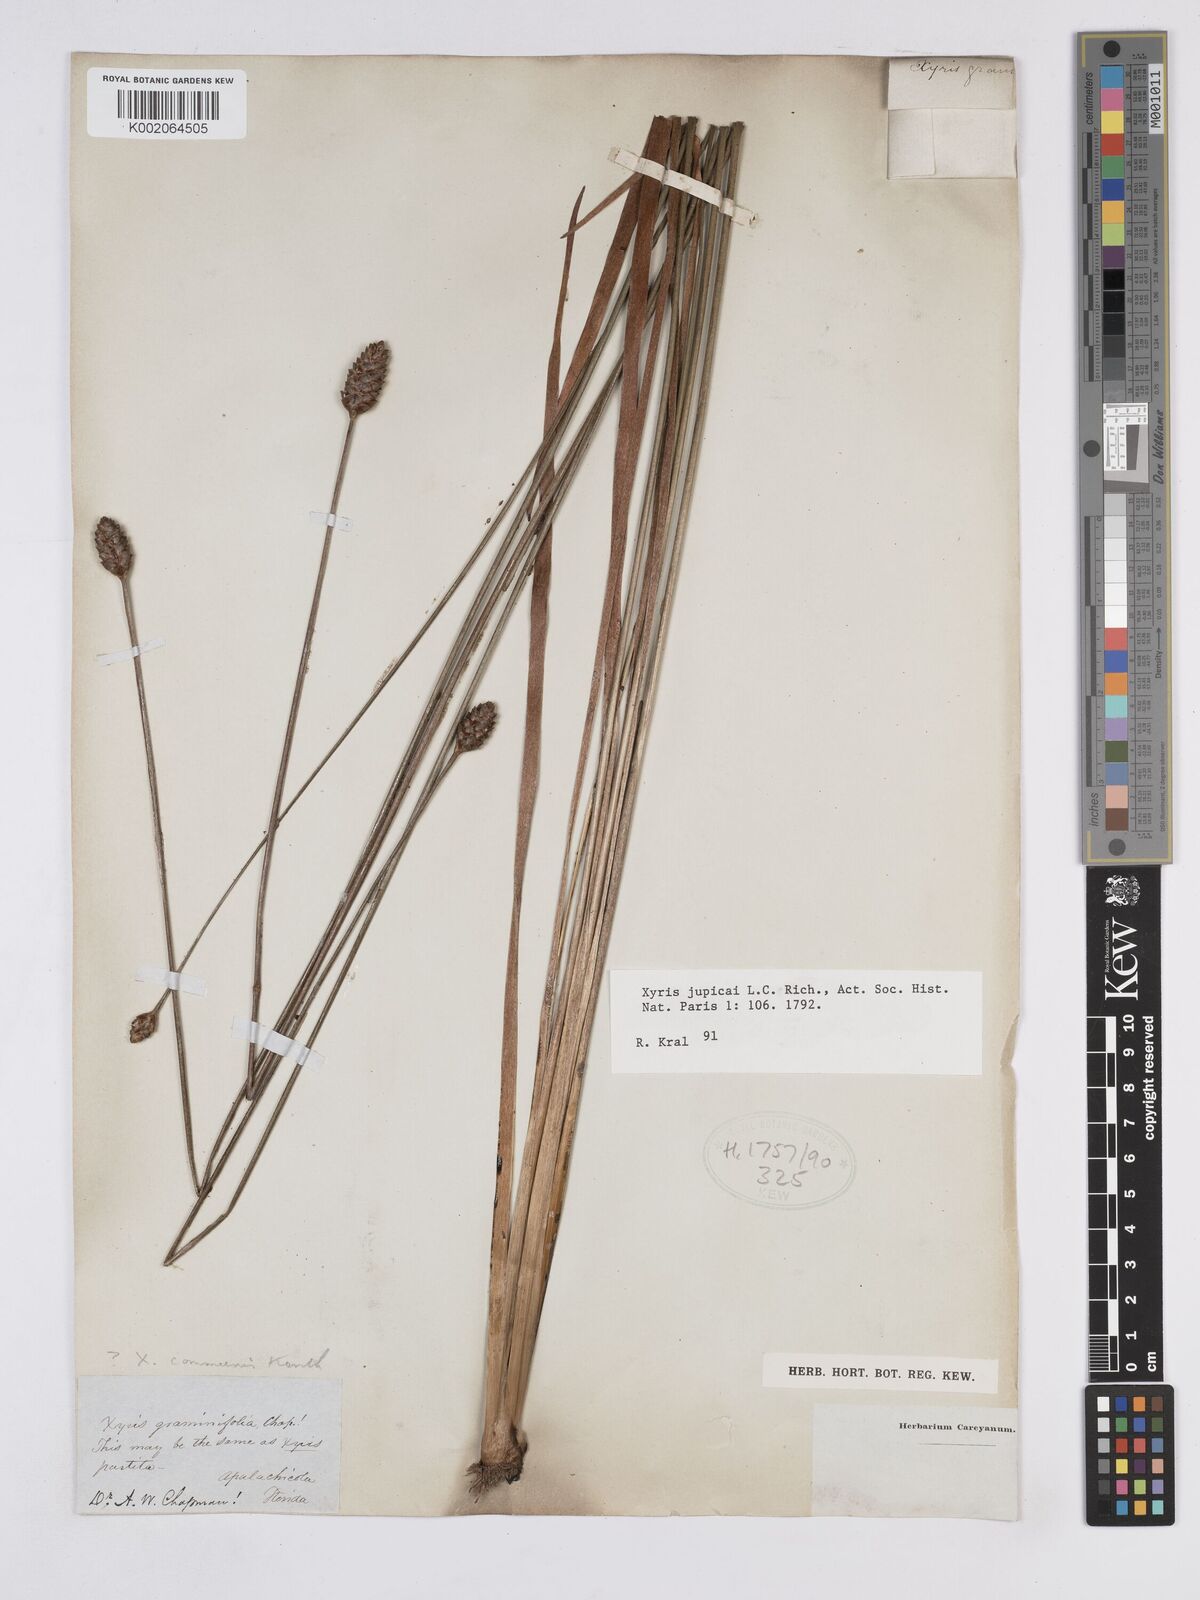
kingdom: Plantae
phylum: Tracheophyta
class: Liliopsida
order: Poales
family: Xyridaceae
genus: Xyris
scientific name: Xyris jupicai
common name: Richard's yelloweyed grass
